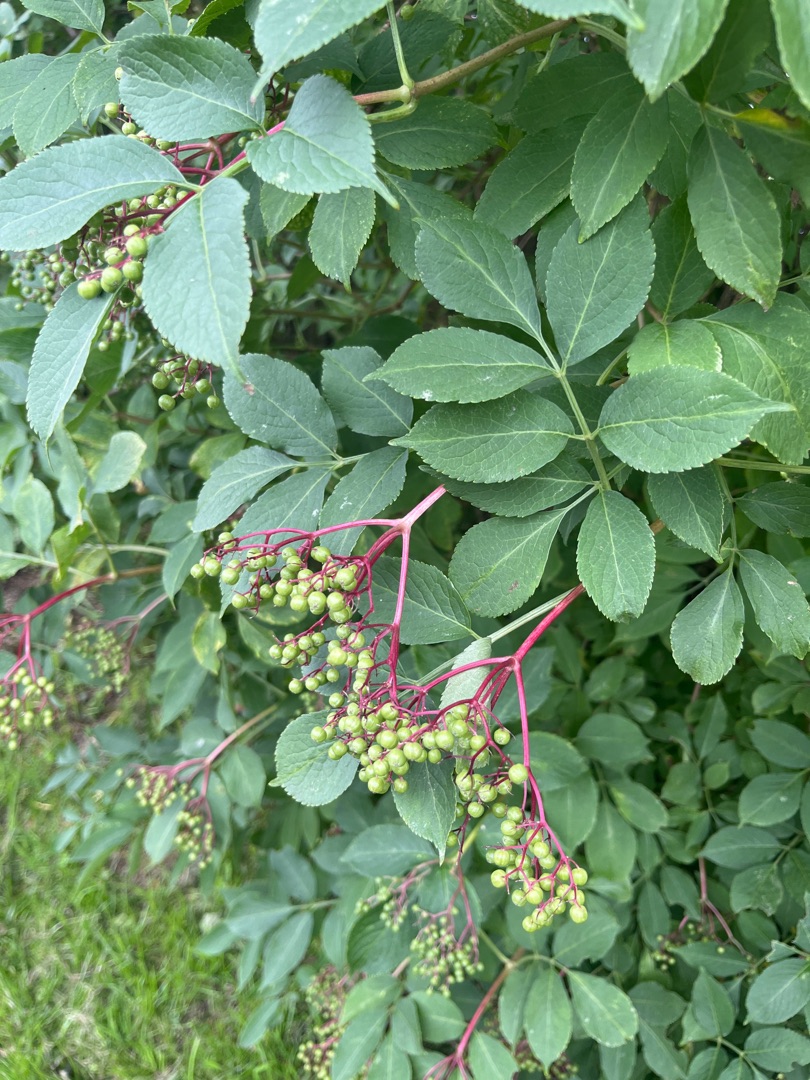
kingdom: Plantae
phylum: Tracheophyta
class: Magnoliopsida
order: Dipsacales
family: Viburnaceae
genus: Sambucus
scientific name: Sambucus nigra
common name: Almindelig hyld
